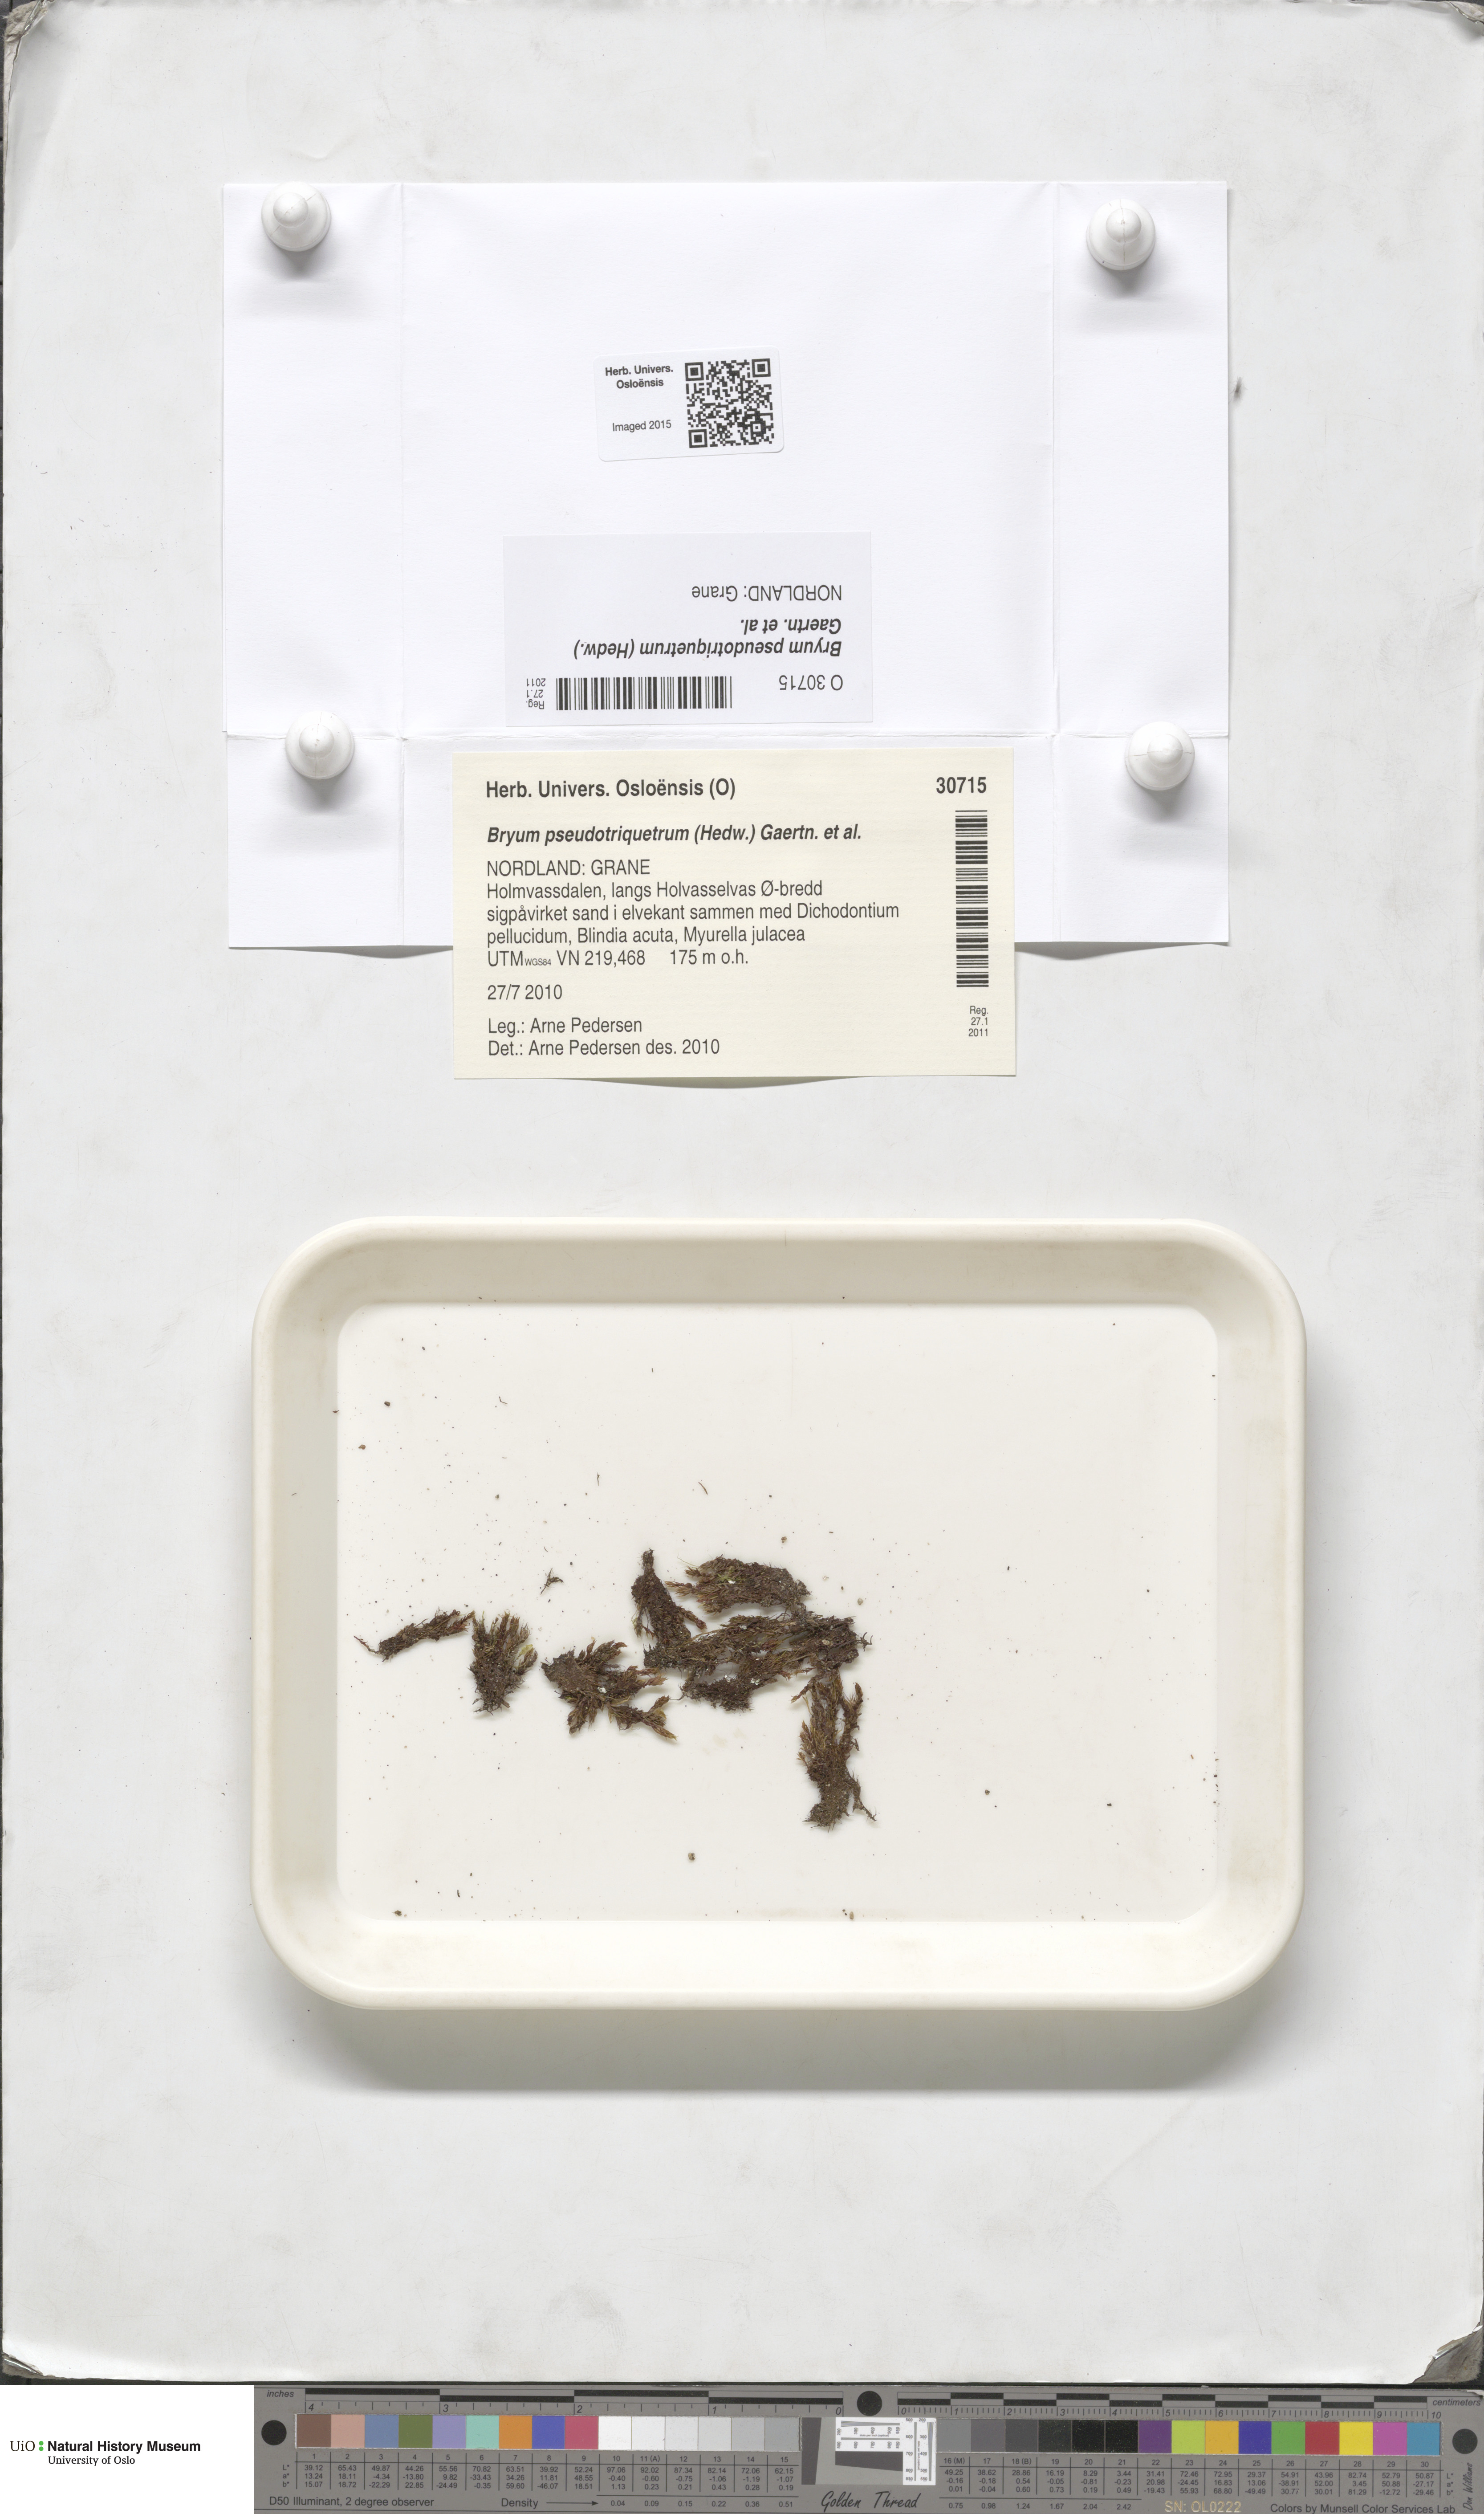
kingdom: Plantae
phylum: Bryophyta
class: Bryopsida
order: Bryales
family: Bryaceae
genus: Ptychostomum
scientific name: Ptychostomum pseudotriquetrum
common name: Long-leaved thread moss
